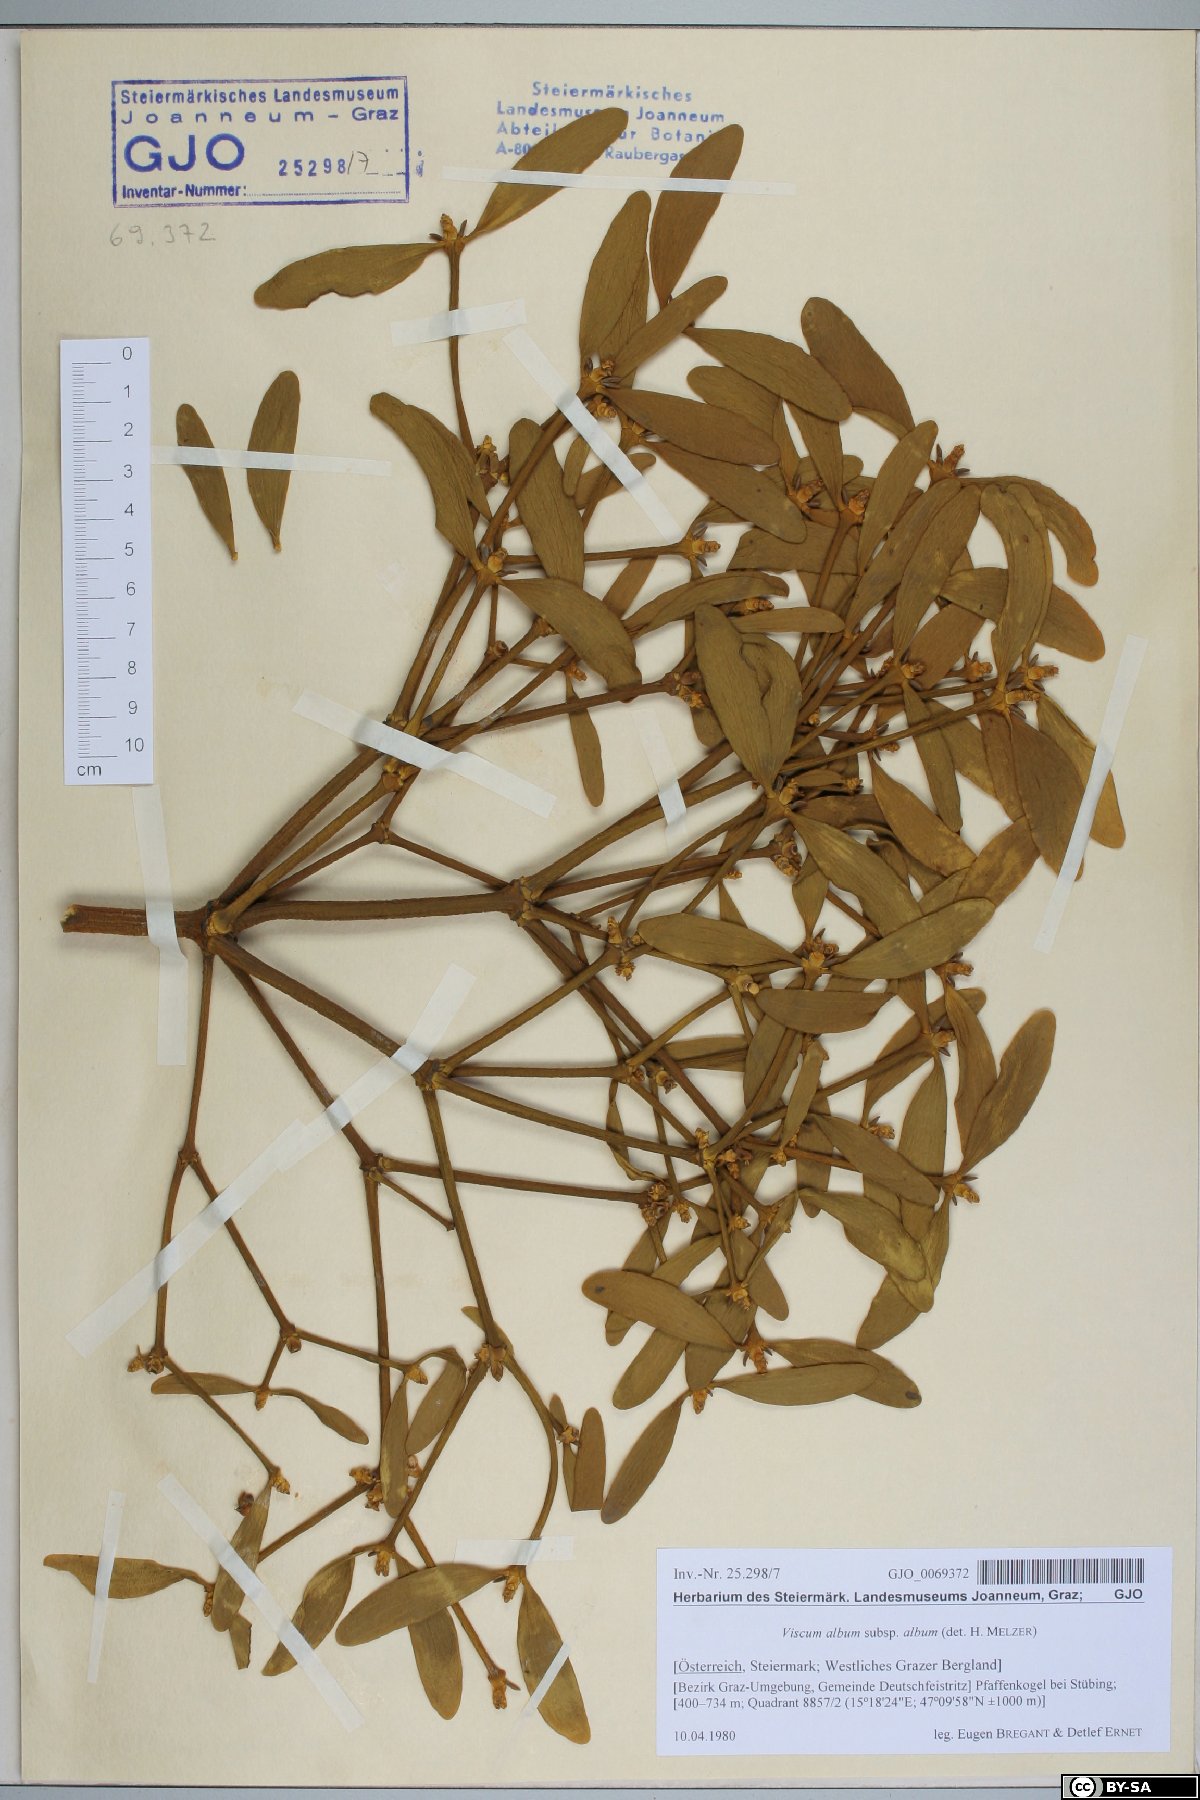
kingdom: Plantae
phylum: Tracheophyta
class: Magnoliopsida
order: Santalales
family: Viscaceae
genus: Viscum
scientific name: Viscum album
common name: Mistletoe
